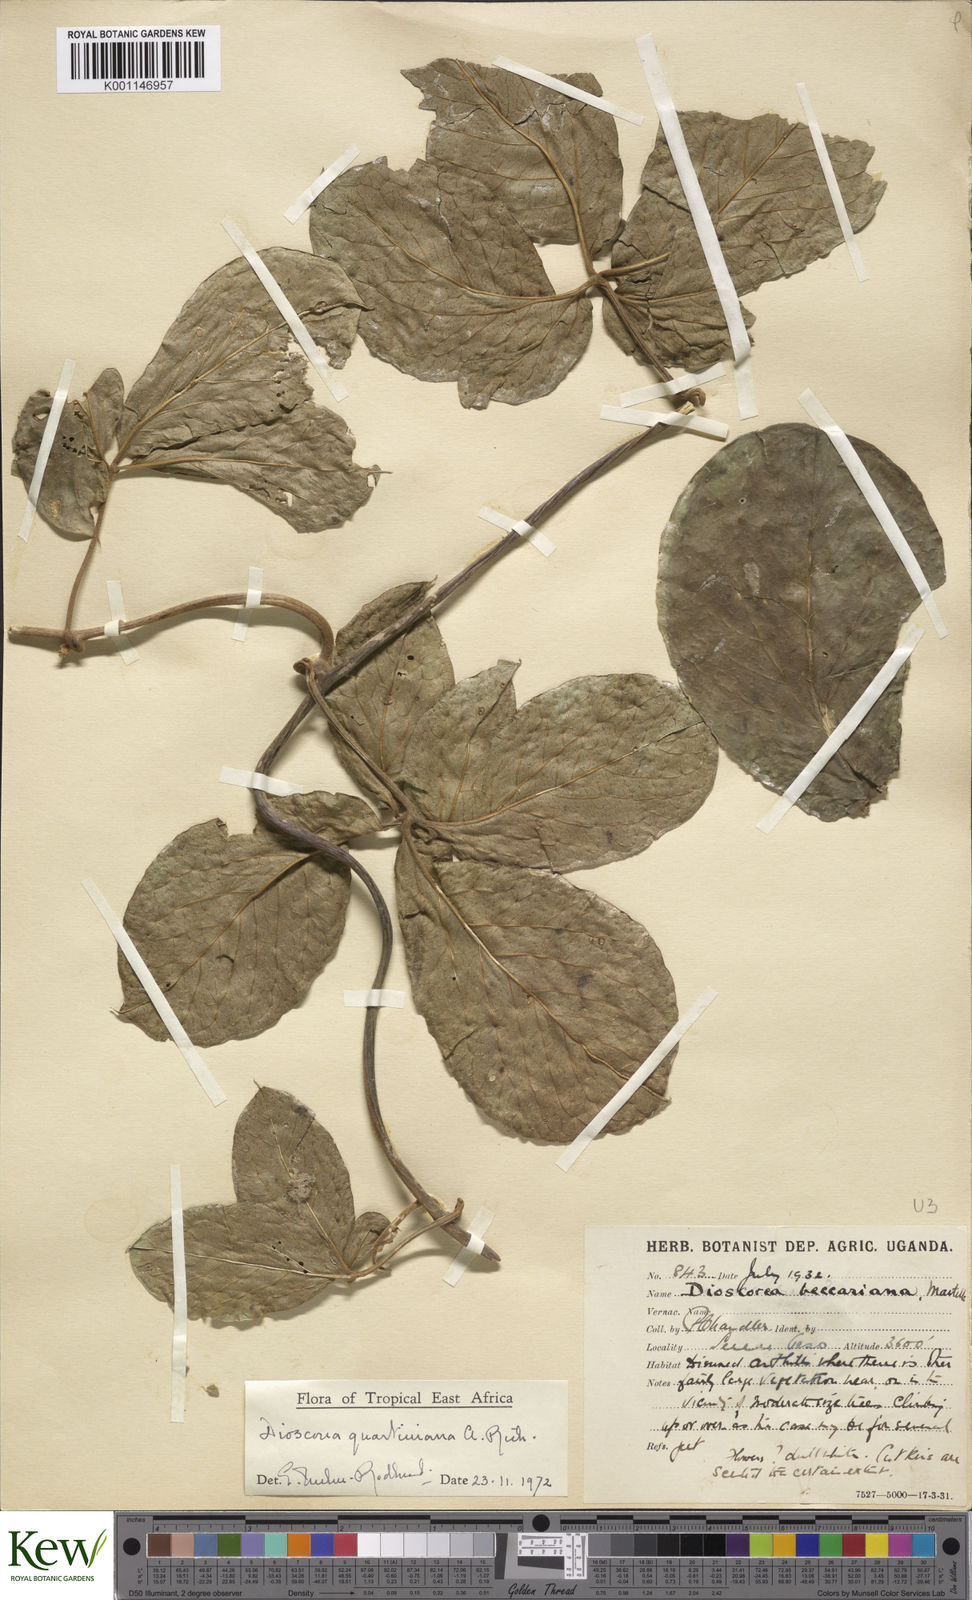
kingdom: Plantae
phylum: Tracheophyta
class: Liliopsida
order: Dioscoreales
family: Dioscoreaceae
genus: Dioscorea
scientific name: Dioscorea quartiniana
